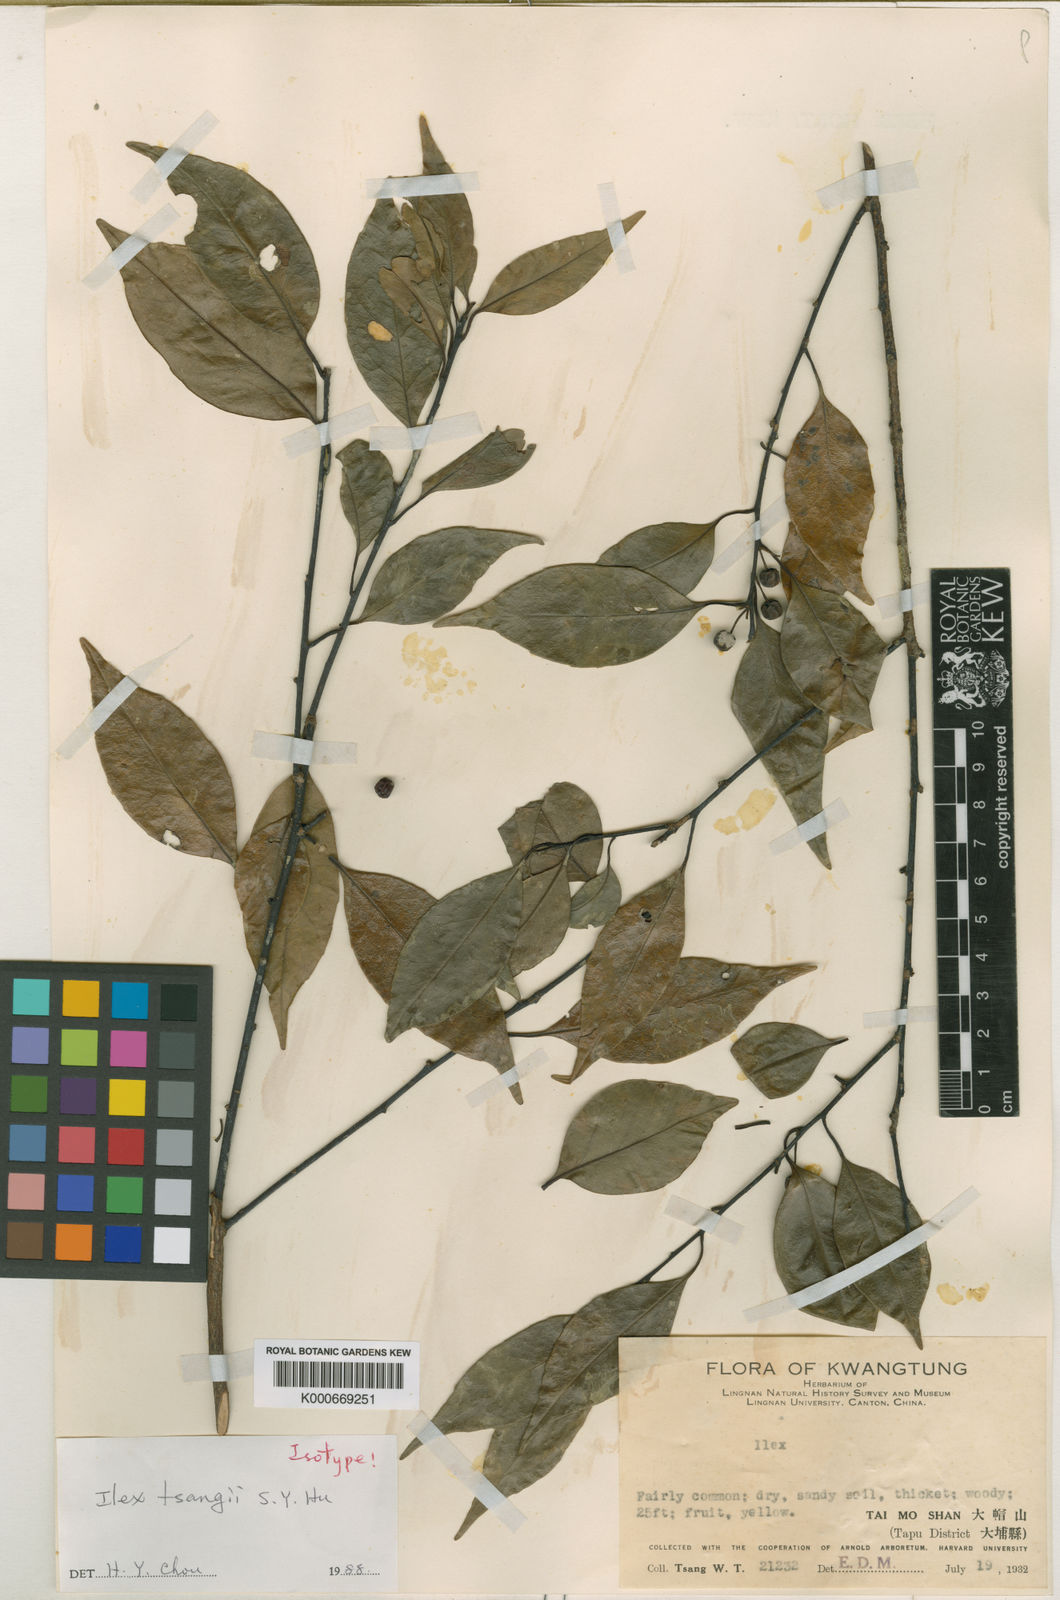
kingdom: Plantae
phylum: Tracheophyta
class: Magnoliopsida
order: Aquifoliales
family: Aquifoliaceae
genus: Ilex
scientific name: Ilex tsangii
